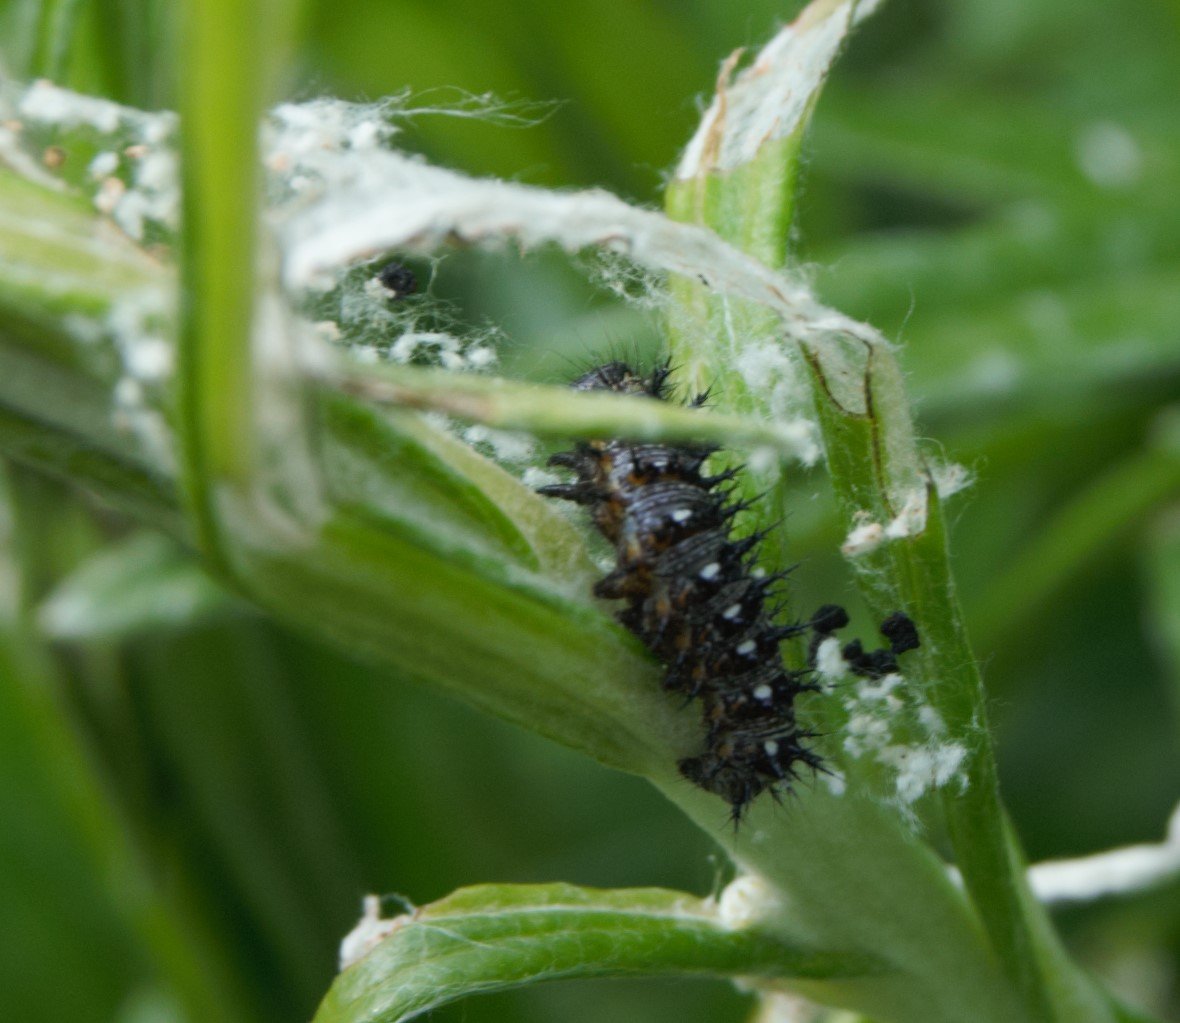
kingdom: Animalia
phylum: Arthropoda
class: Insecta
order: Lepidoptera
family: Nymphalidae
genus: Vanessa
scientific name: Vanessa virginiensis
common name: American Lady
